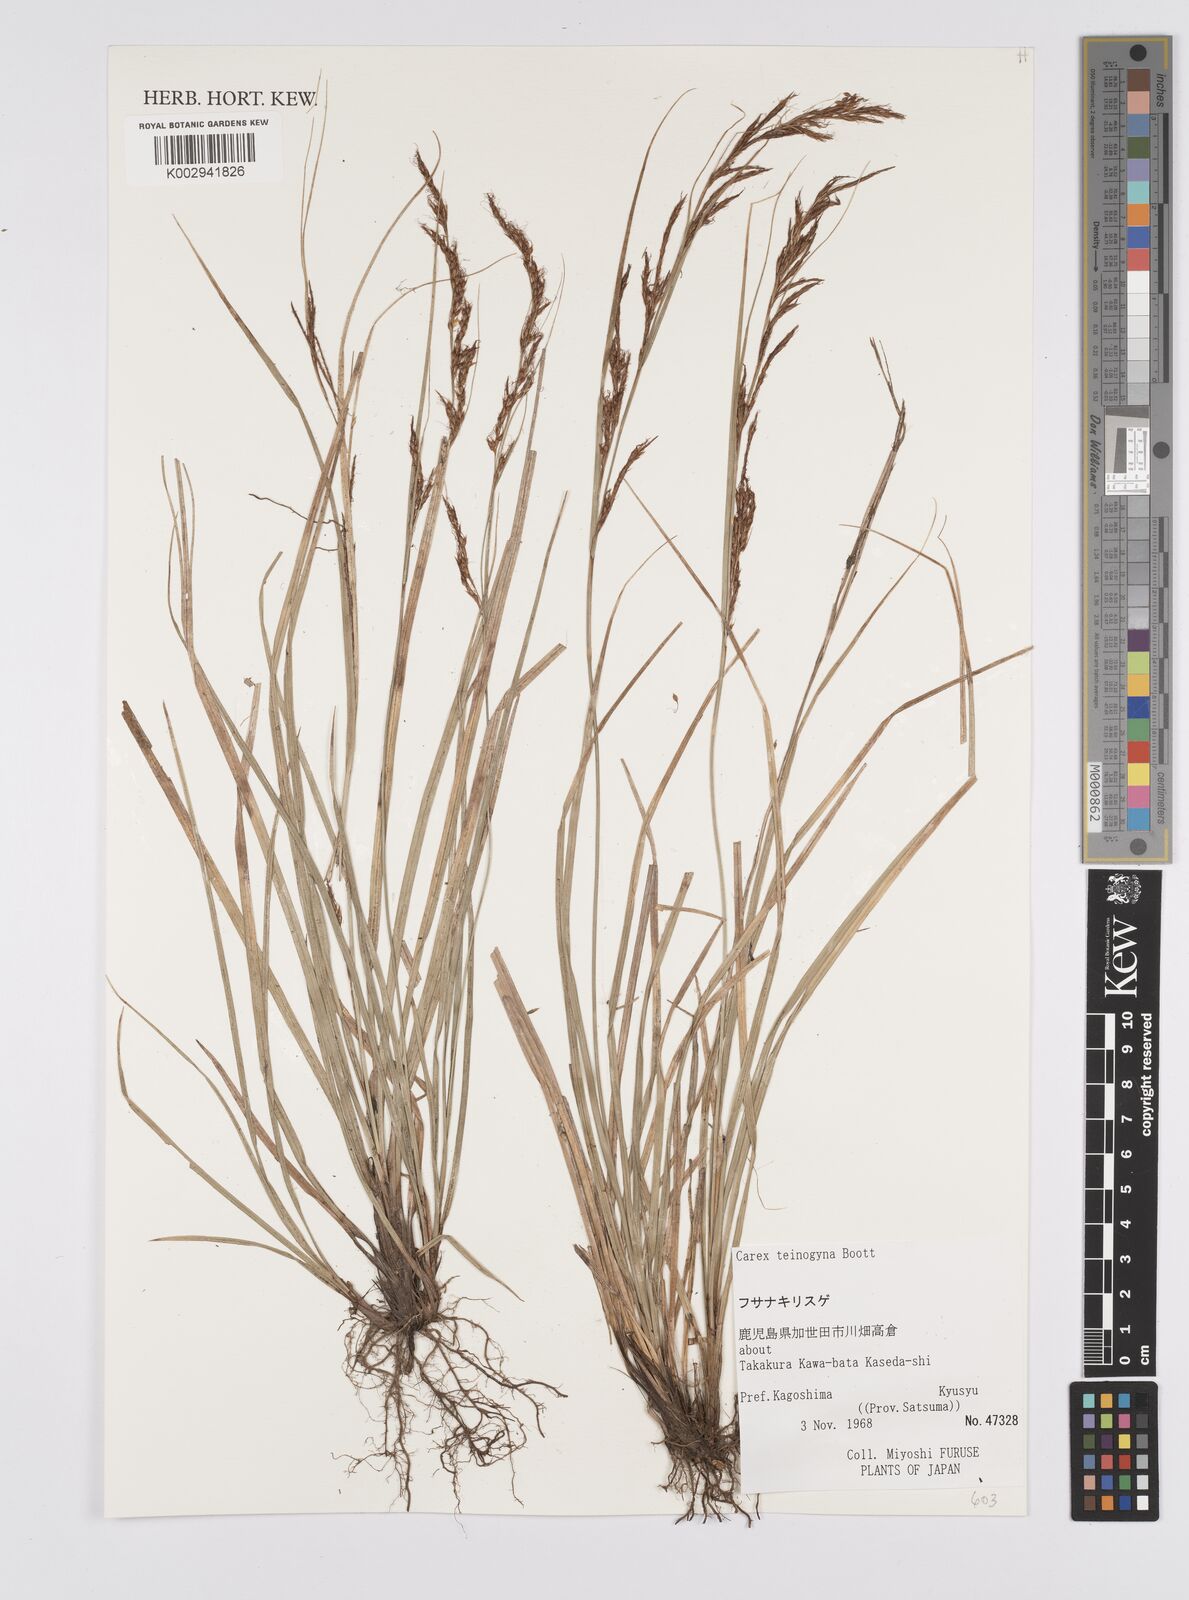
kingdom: Plantae
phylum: Tracheophyta
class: Liliopsida
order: Poales
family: Cyperaceae
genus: Carex
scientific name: Carex teinogyna
